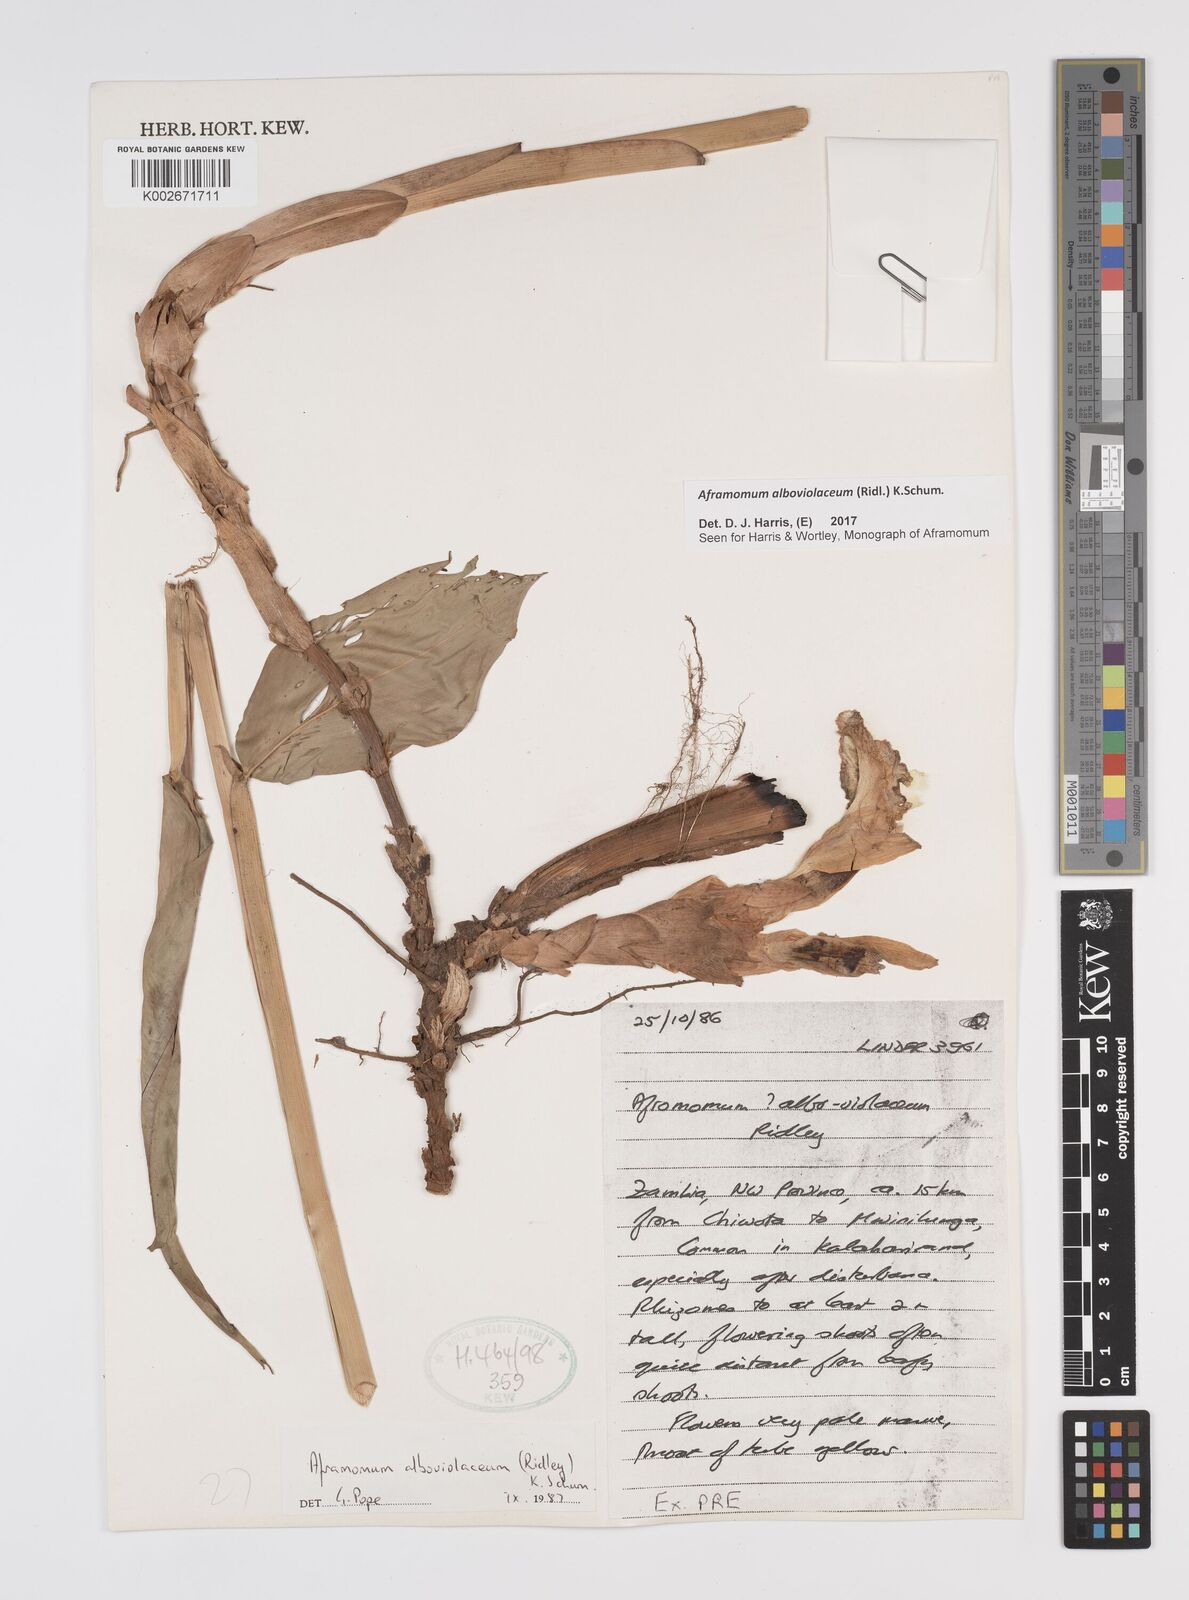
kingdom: Plantae
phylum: Tracheophyta
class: Liliopsida
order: Zingiberales
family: Zingiberaceae
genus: Aframomum
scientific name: Aframomum alboviolaceum
